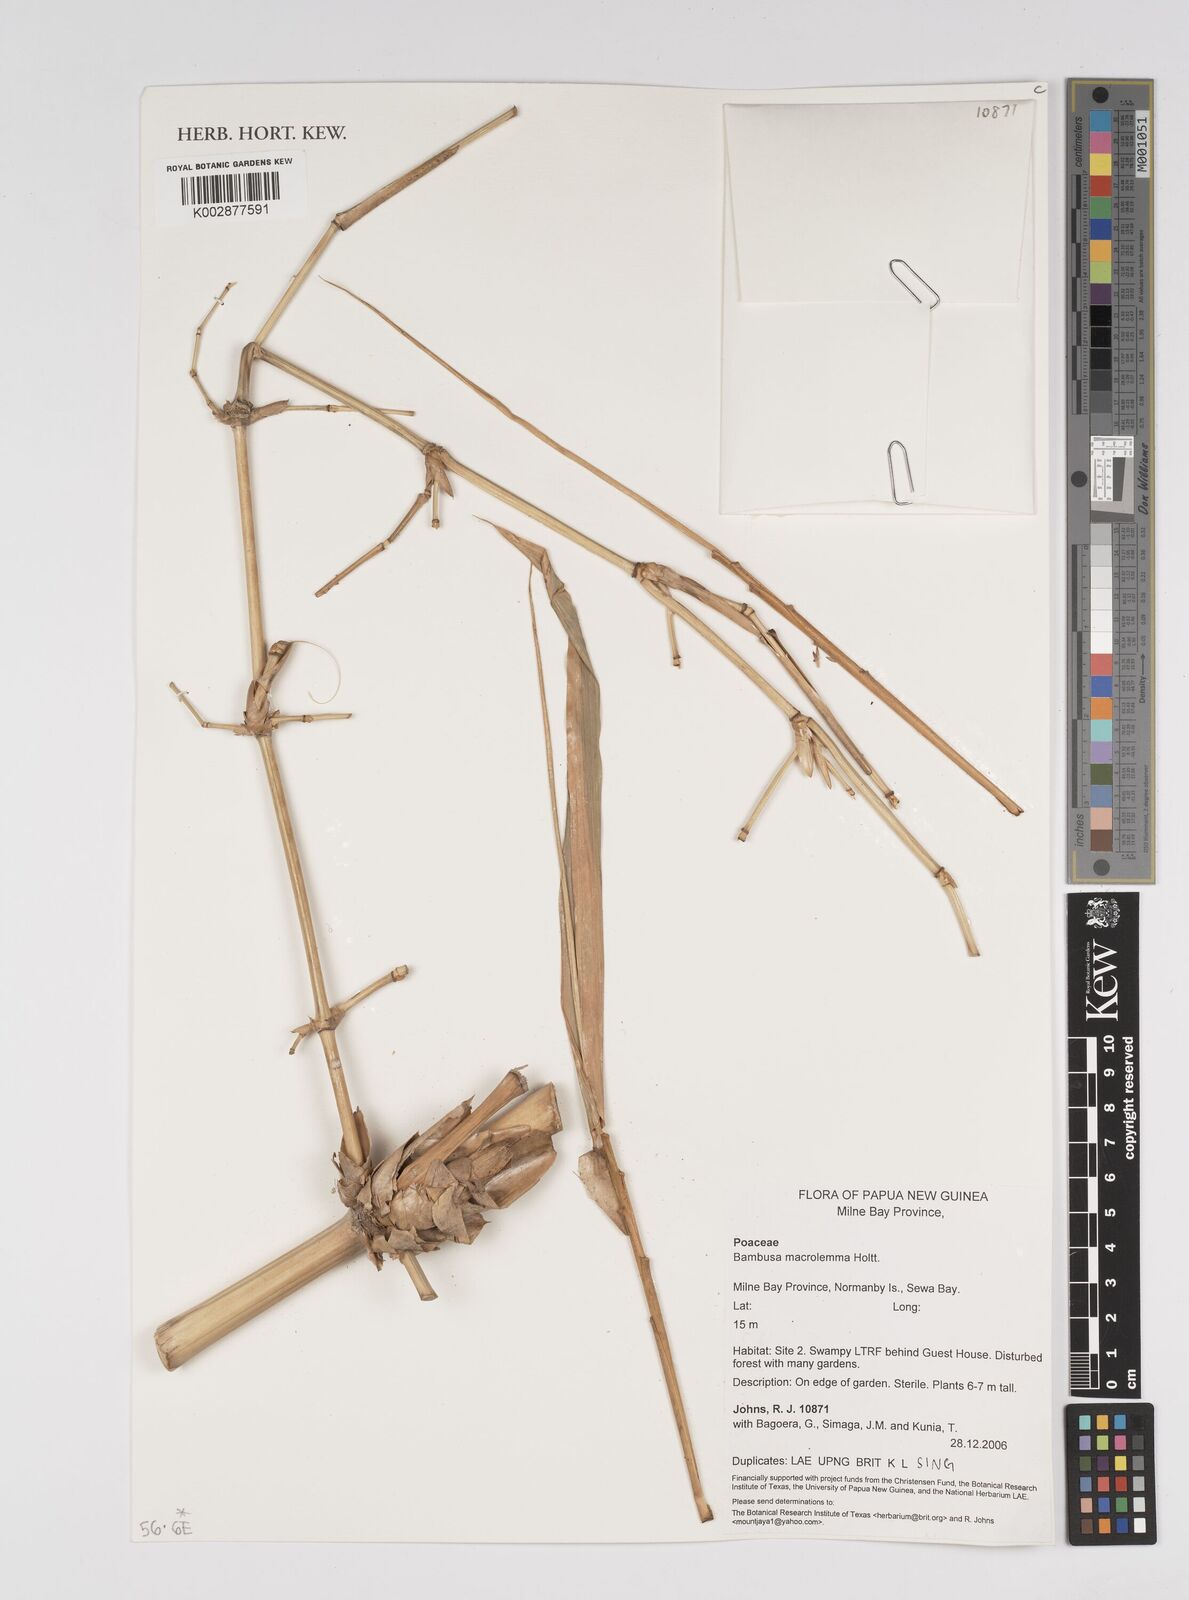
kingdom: Plantae
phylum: Tracheophyta
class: Liliopsida
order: Poales
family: Poaceae
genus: Bambusa
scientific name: Bambusa macrolemma
